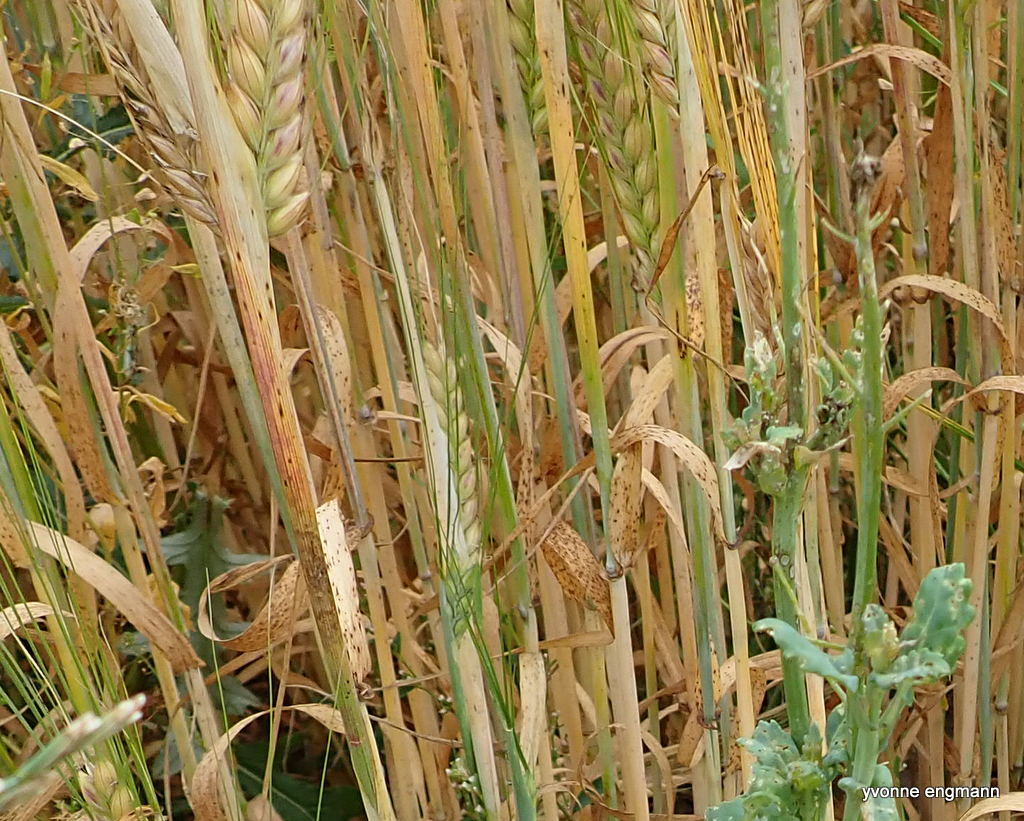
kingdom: Fungi
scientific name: Fungi
